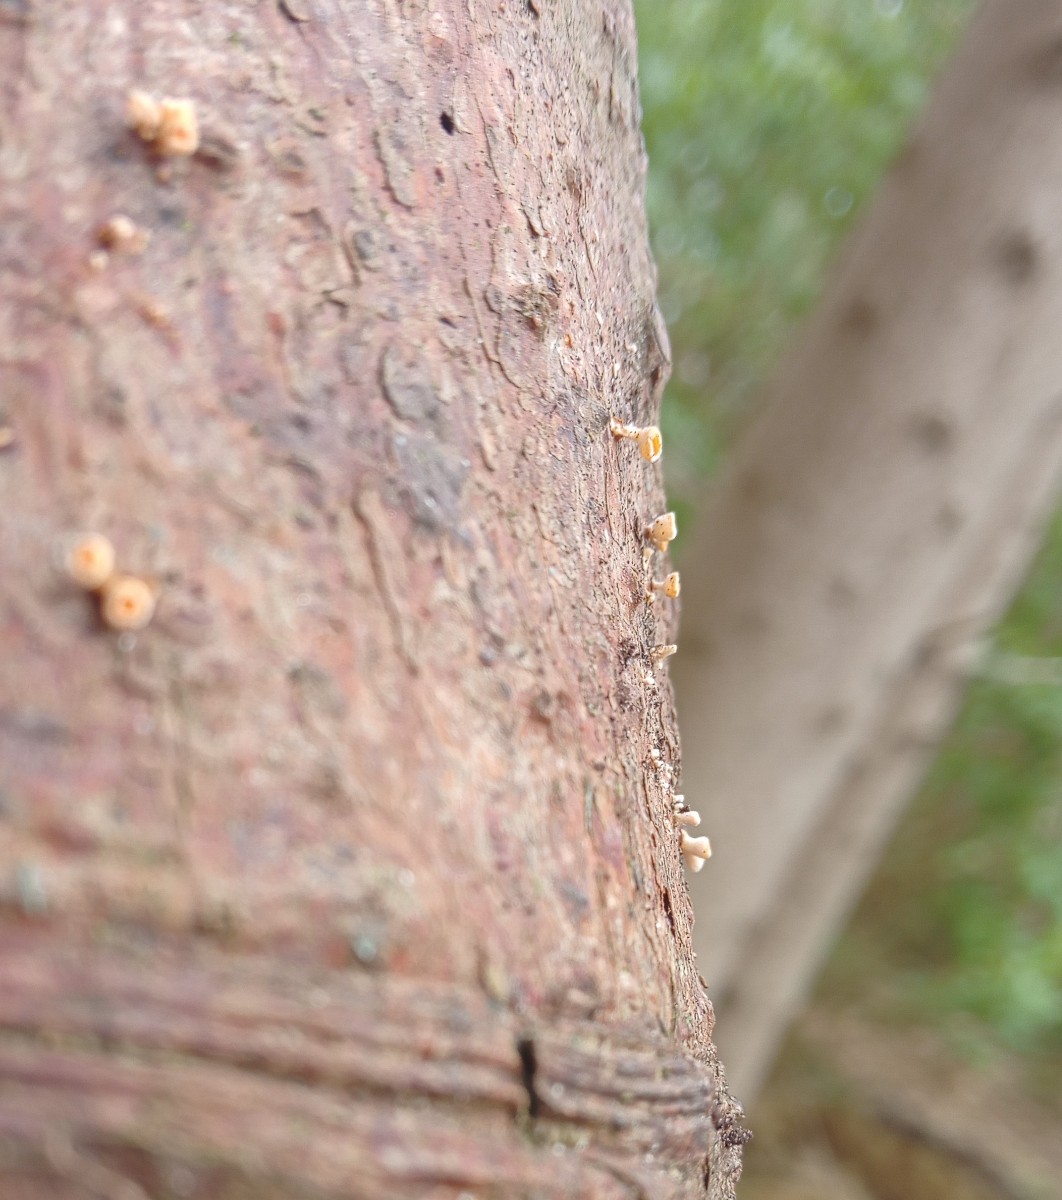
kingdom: Fungi
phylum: Ascomycota
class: Leotiomycetes
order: Helotiales
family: Lachnaceae
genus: Lachnellula
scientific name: Lachnellula
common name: frynseskive
